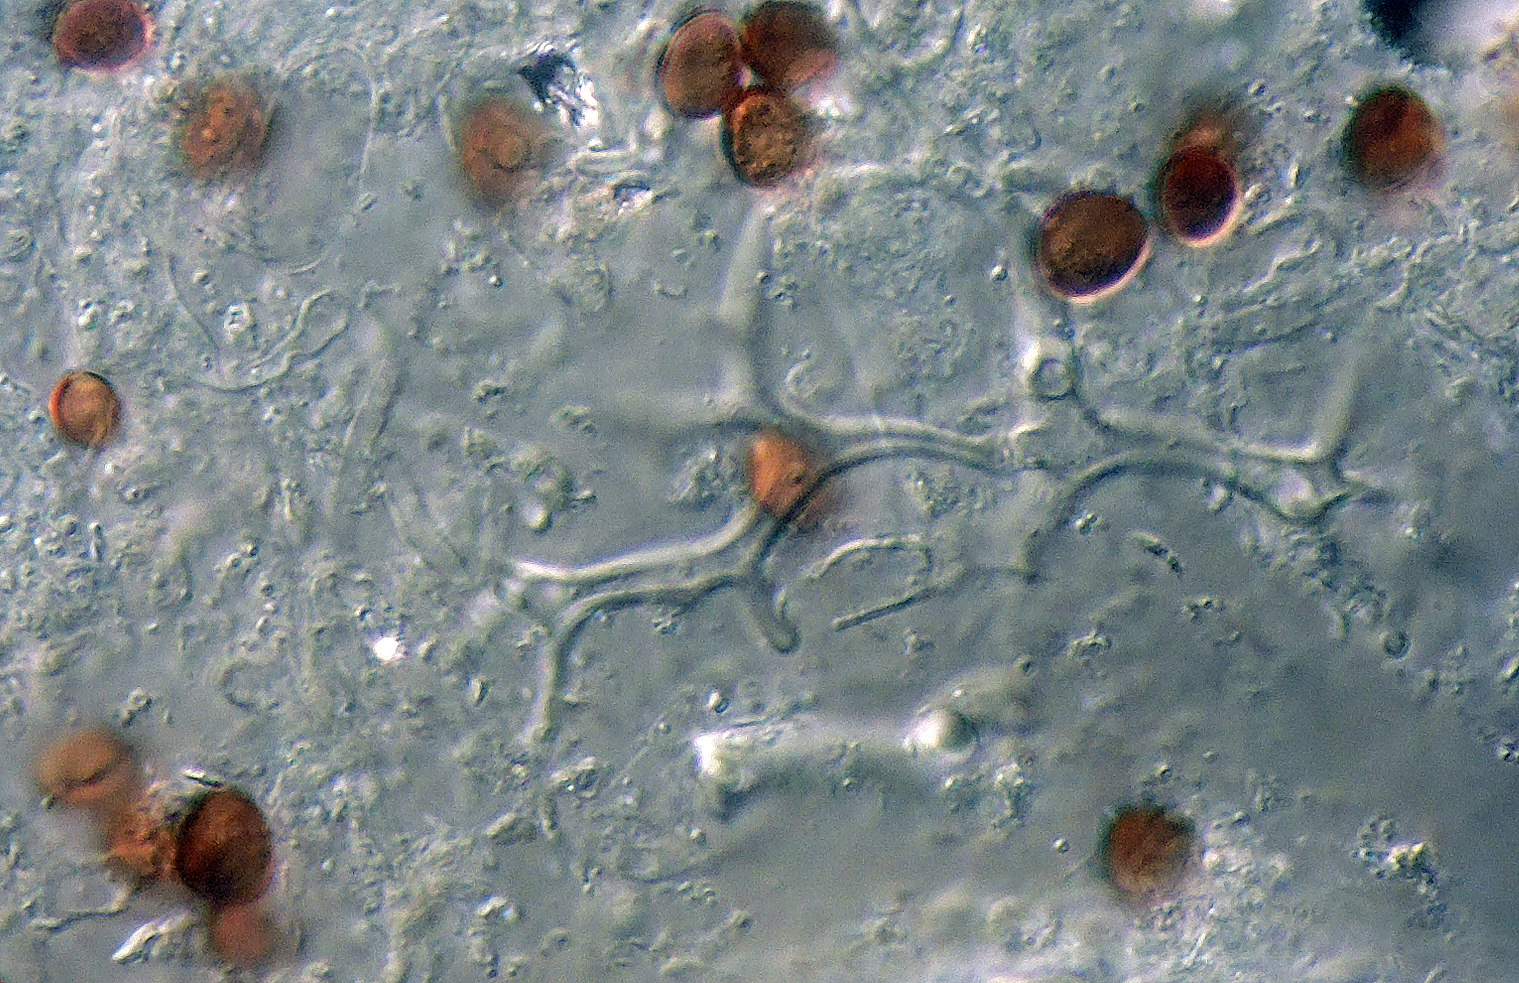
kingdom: Fungi
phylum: Basidiomycota
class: Agaricomycetes
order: Agaricales
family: Psathyrellaceae
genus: Coprinopsis
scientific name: Coprinopsis
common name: blækhat
